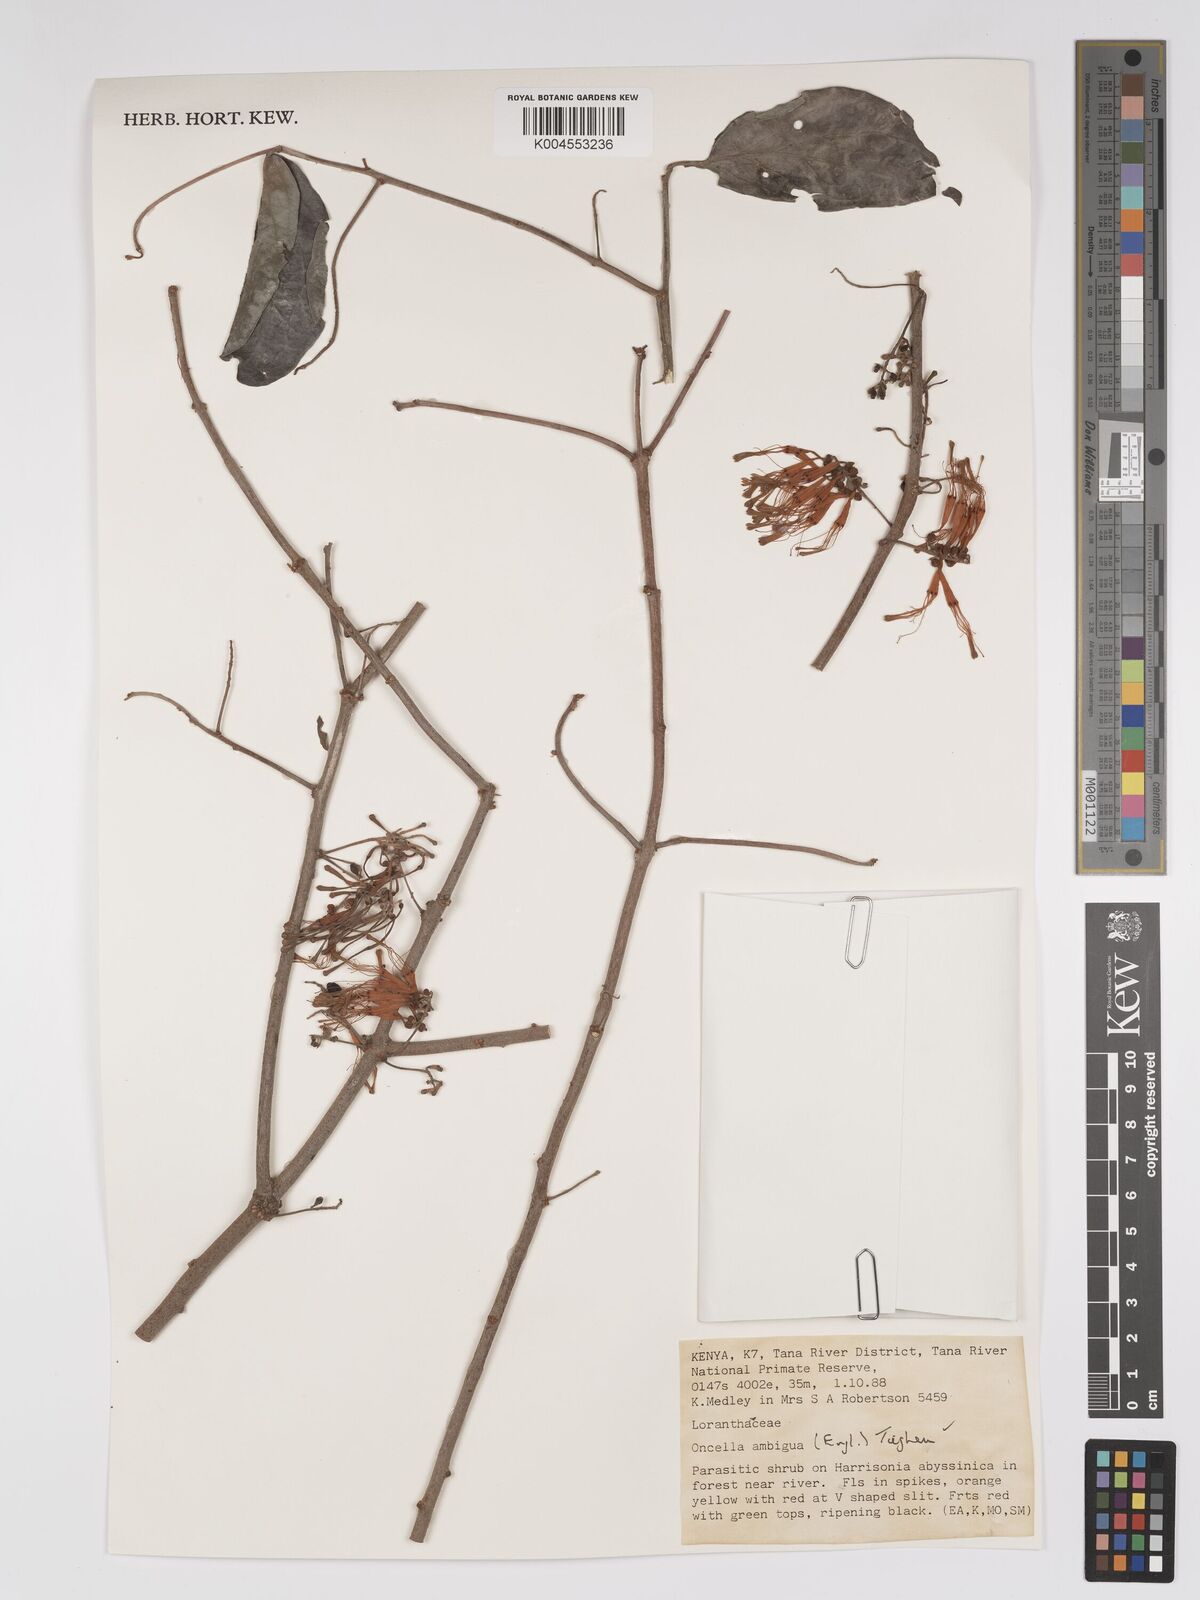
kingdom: Plantae
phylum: Tracheophyta
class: Magnoliopsida
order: Santalales
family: Loranthaceae
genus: Oncella
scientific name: Oncella ambigua
